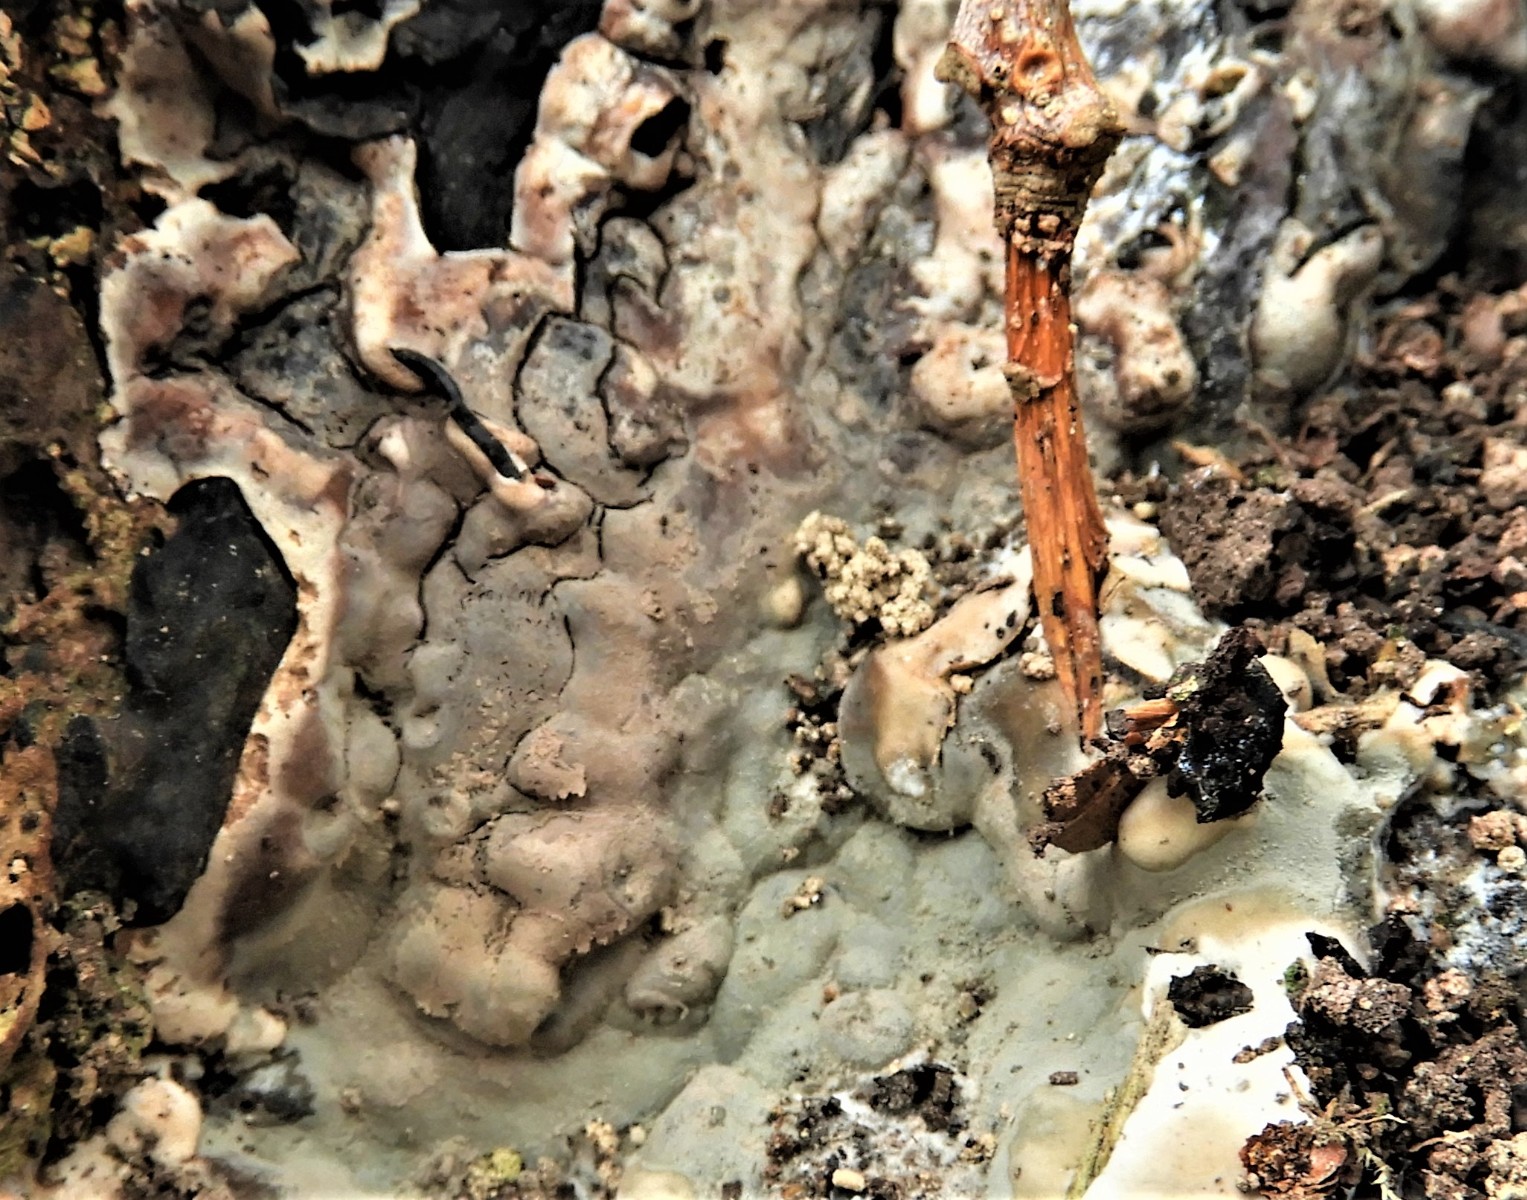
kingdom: Fungi
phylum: Ascomycota
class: Sordariomycetes
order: Xylariales
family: Xylariaceae
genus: Kretzschmaria
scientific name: Kretzschmaria deusta
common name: stor kulsvamp
